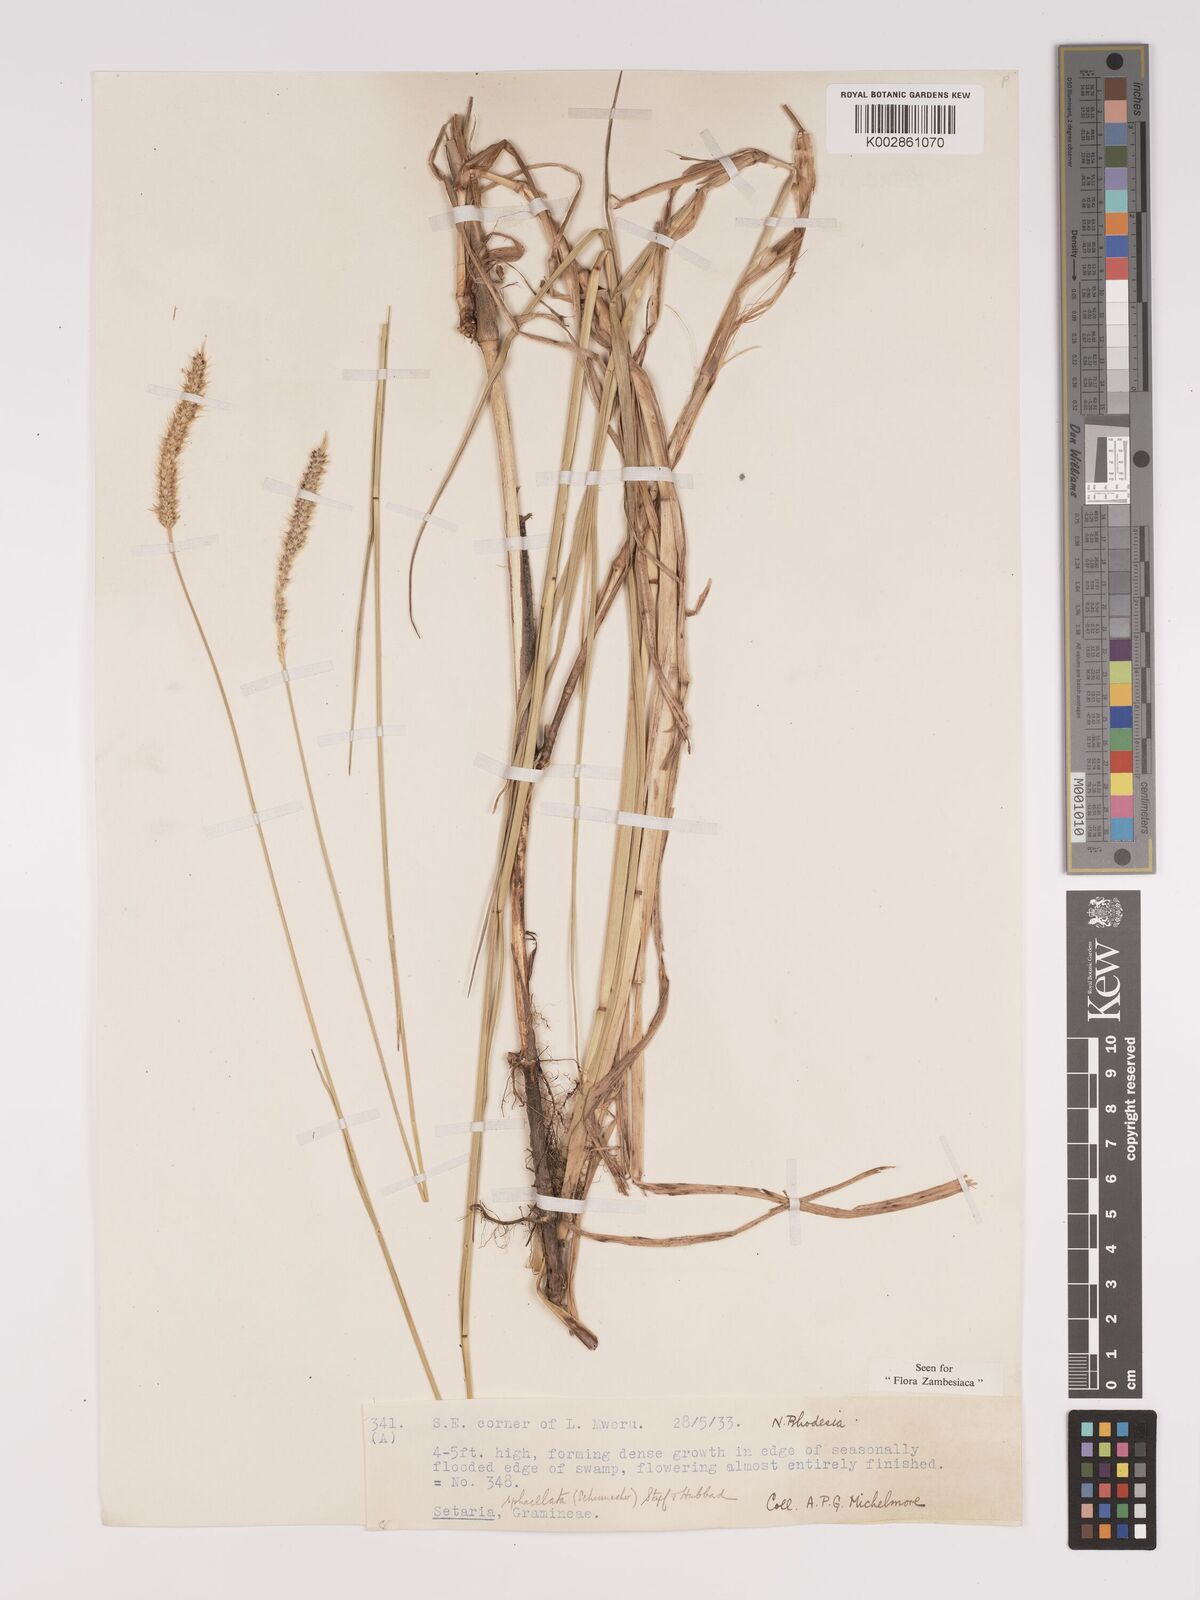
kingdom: Plantae
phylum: Tracheophyta
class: Liliopsida
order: Poales
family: Poaceae
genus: Setaria
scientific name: Setaria sphacelata
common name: African bristlegrass
